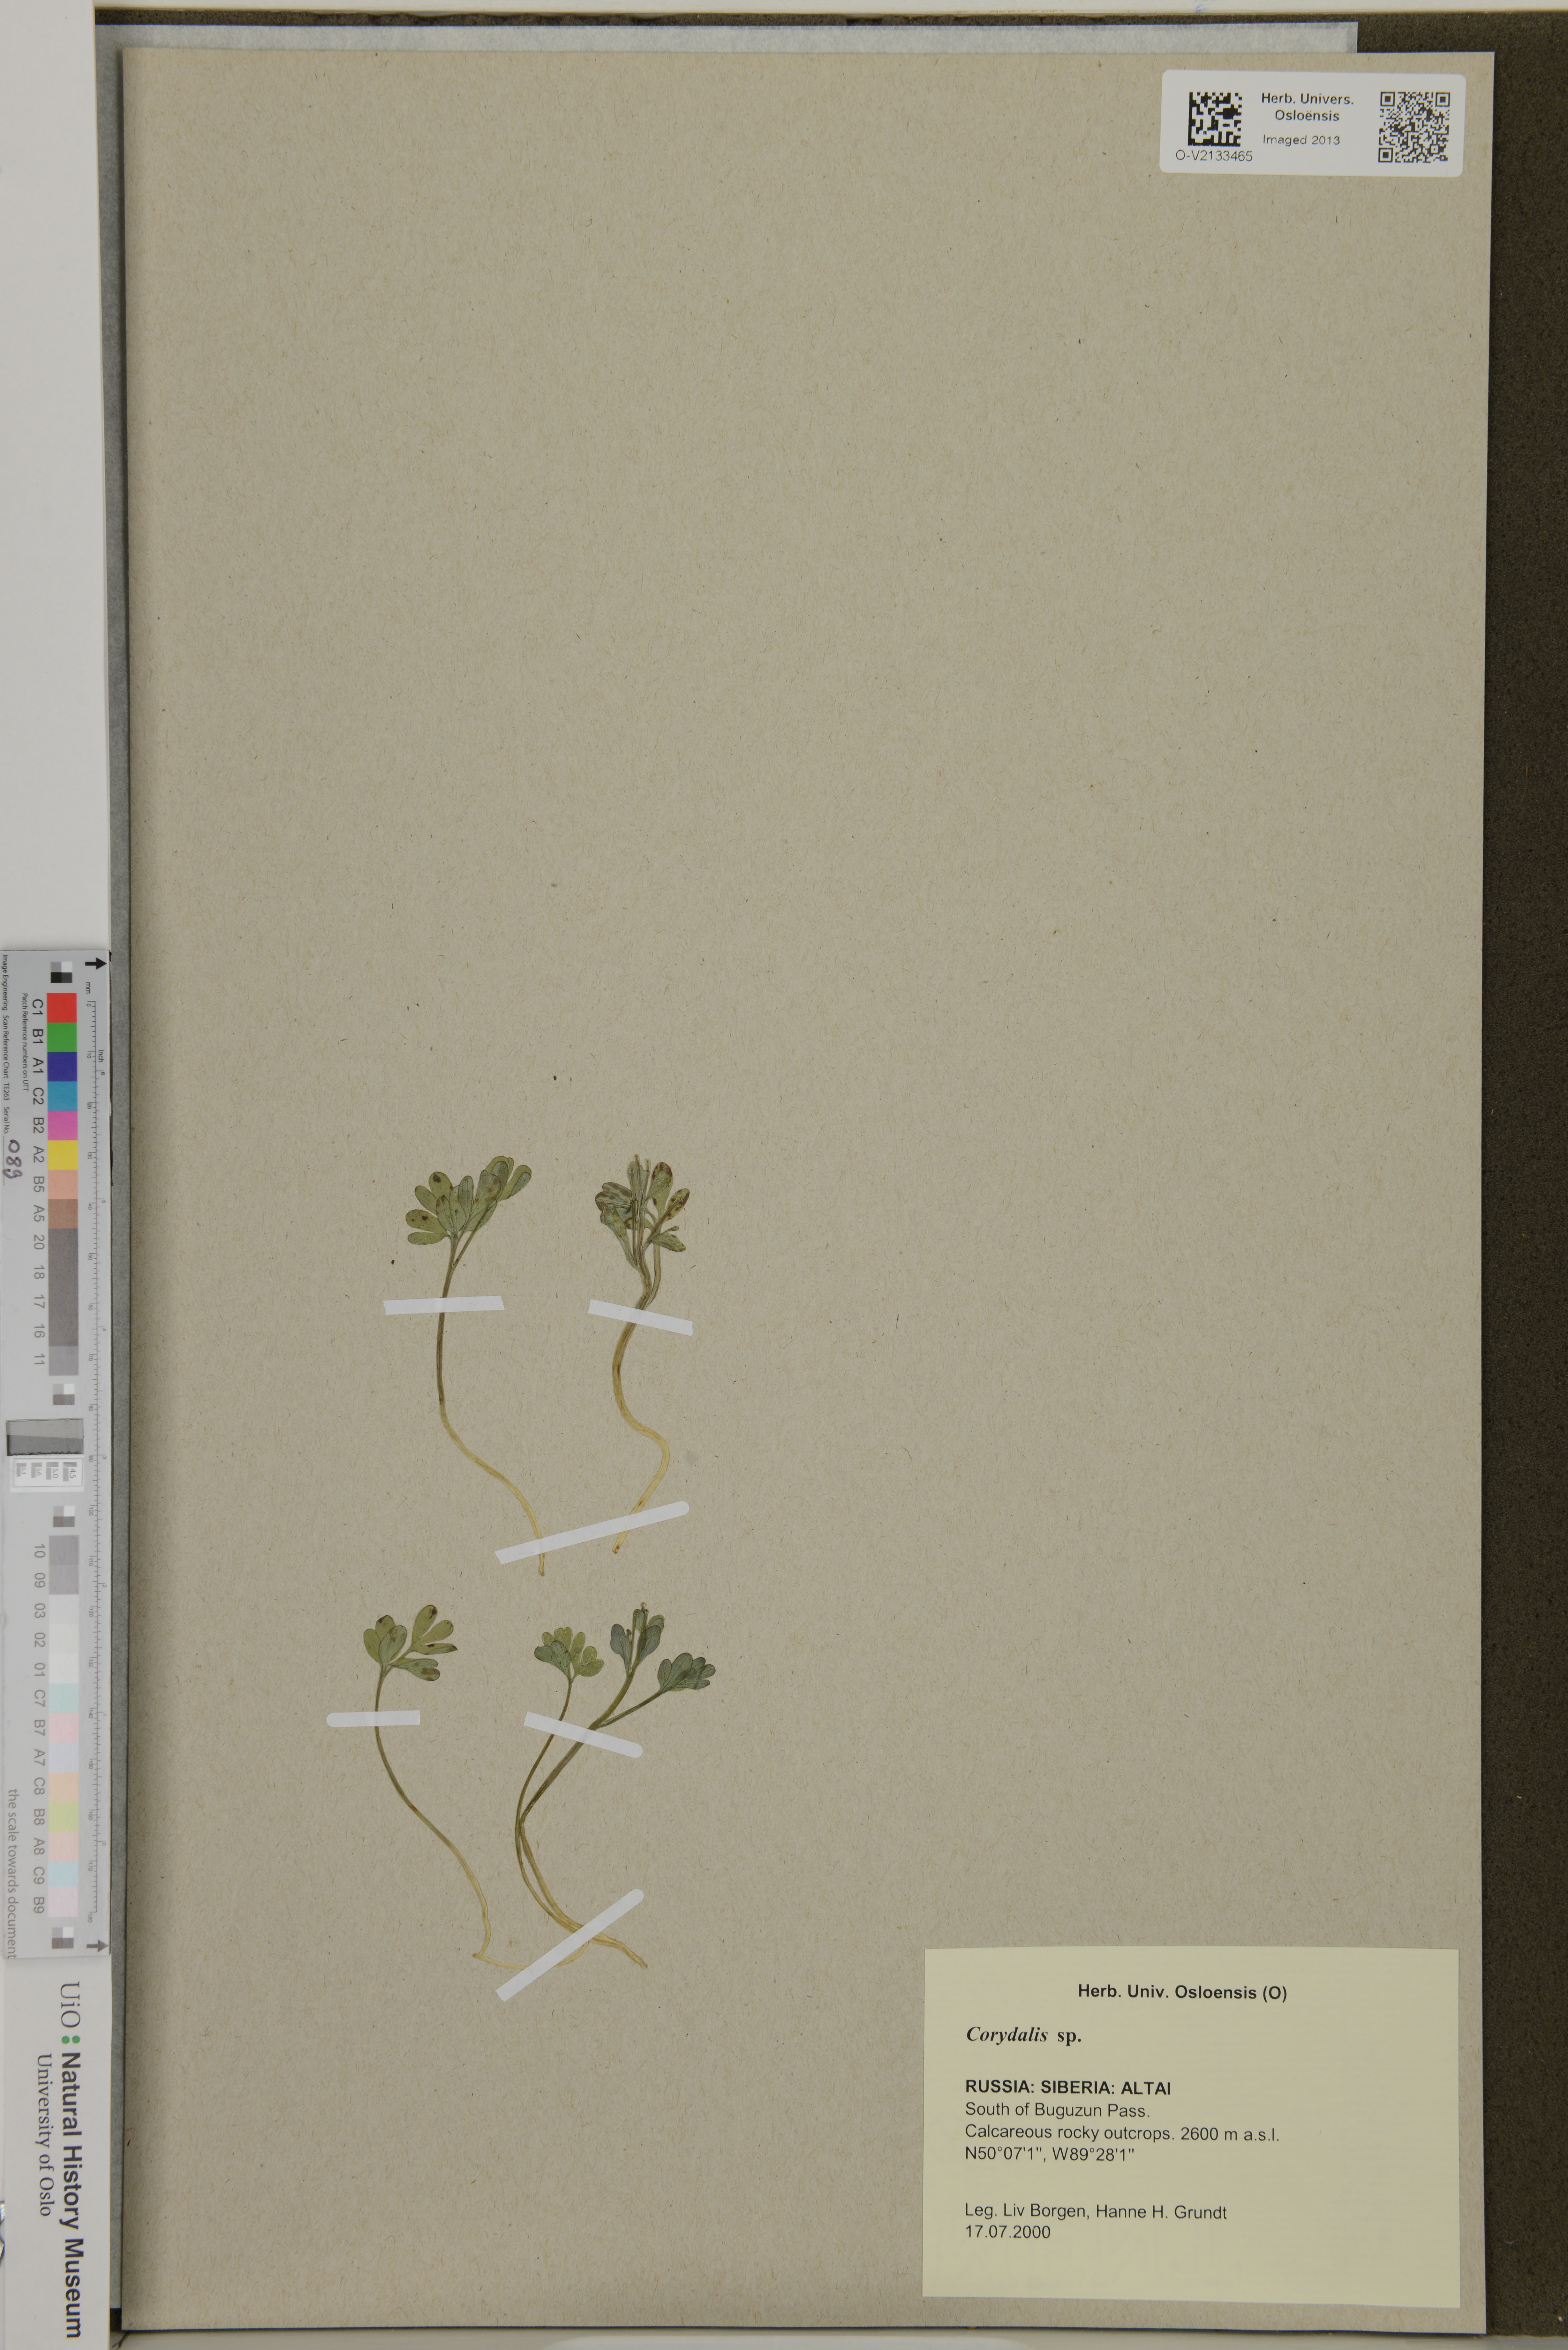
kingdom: Plantae
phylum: Tracheophyta
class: Magnoliopsida
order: Ranunculales
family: Papaveraceae
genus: Corydalis
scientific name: Corydalis
